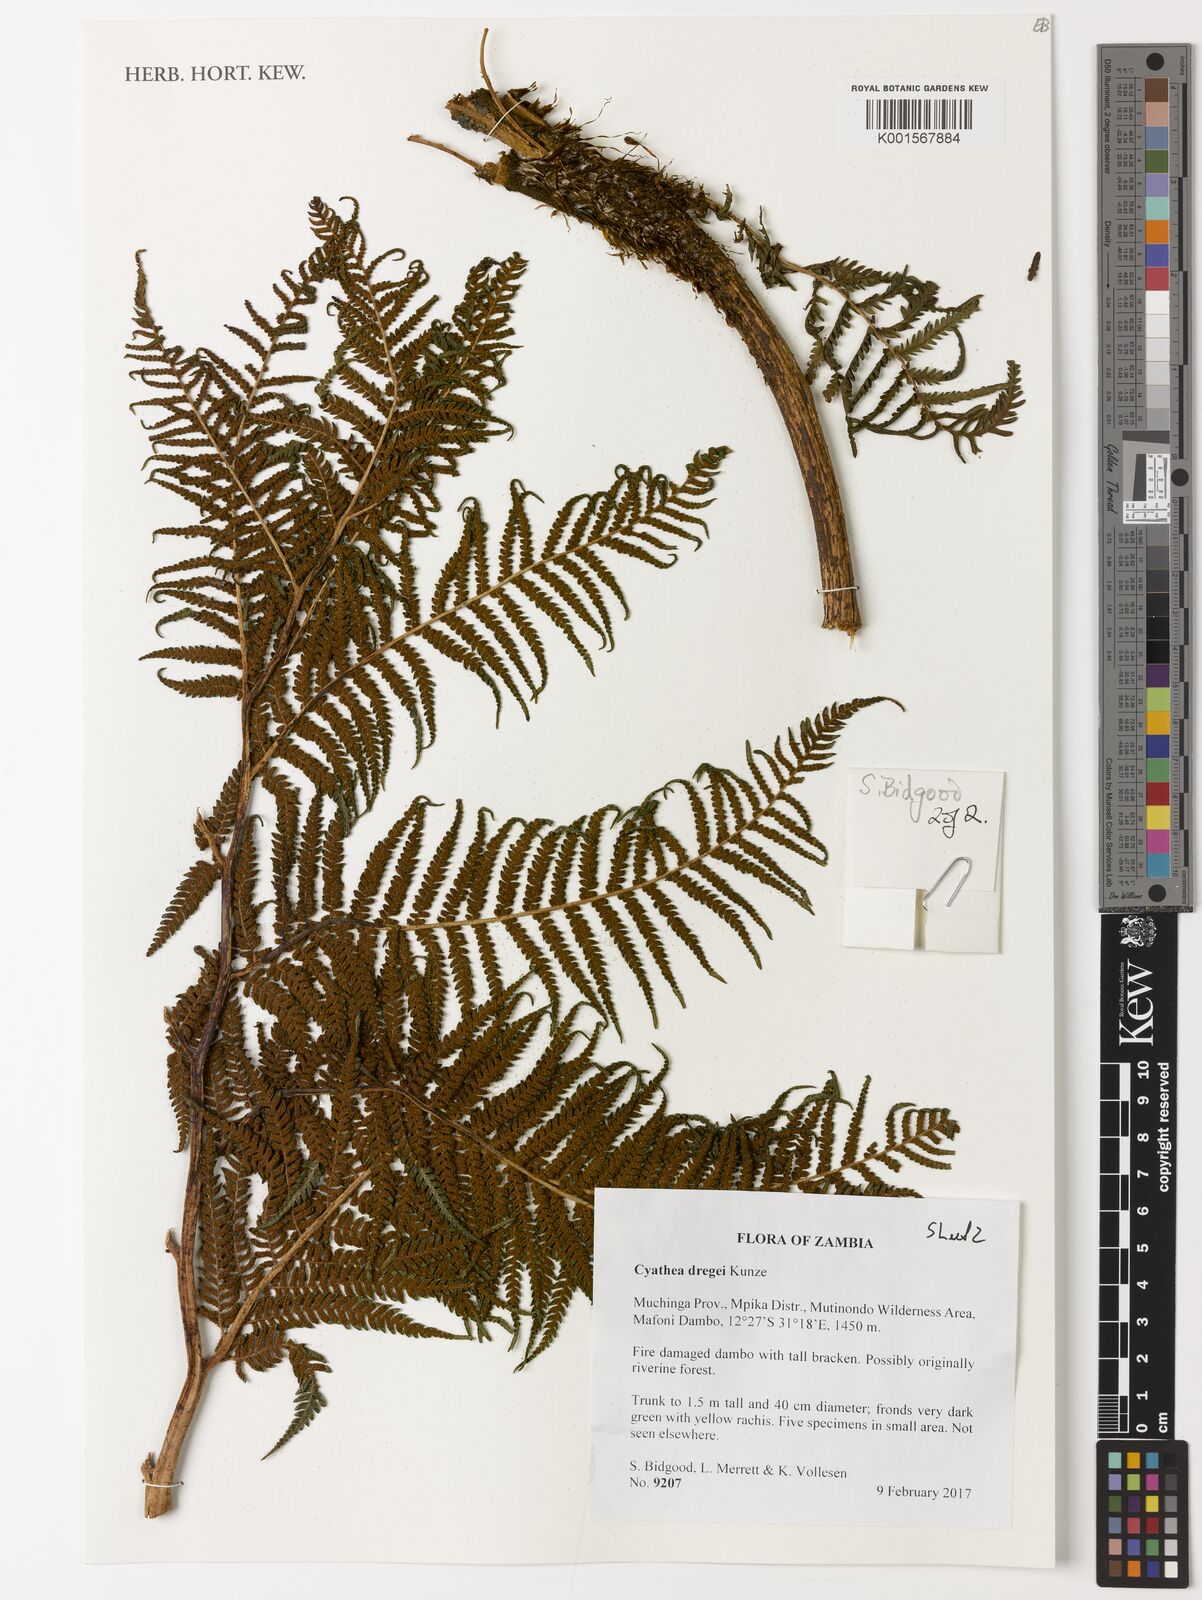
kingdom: Plantae
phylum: Tracheophyta
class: Polypodiopsida
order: Cyatheales
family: Cyatheaceae
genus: Alsophila
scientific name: Alsophila dregei
